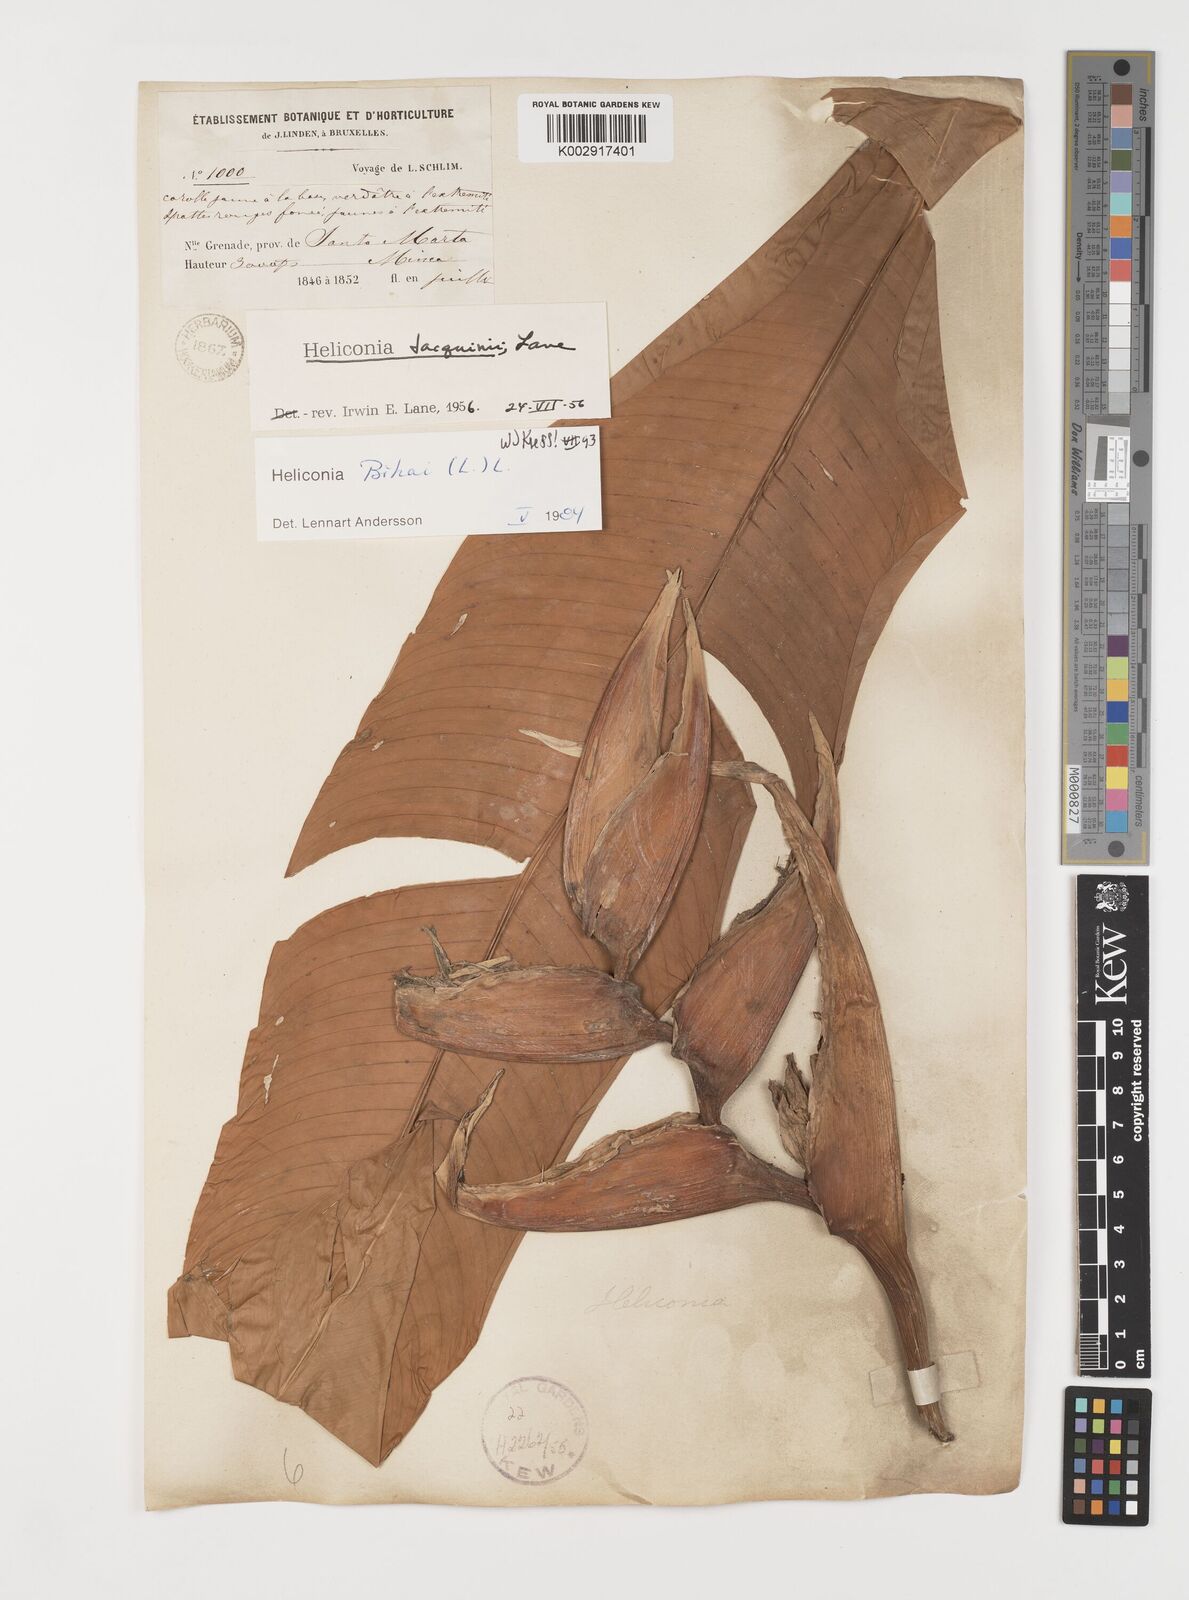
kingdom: Plantae
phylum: Tracheophyta
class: Liliopsida
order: Zingiberales
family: Heliconiaceae
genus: Heliconia
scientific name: Heliconia bihai
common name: Macaw flower
